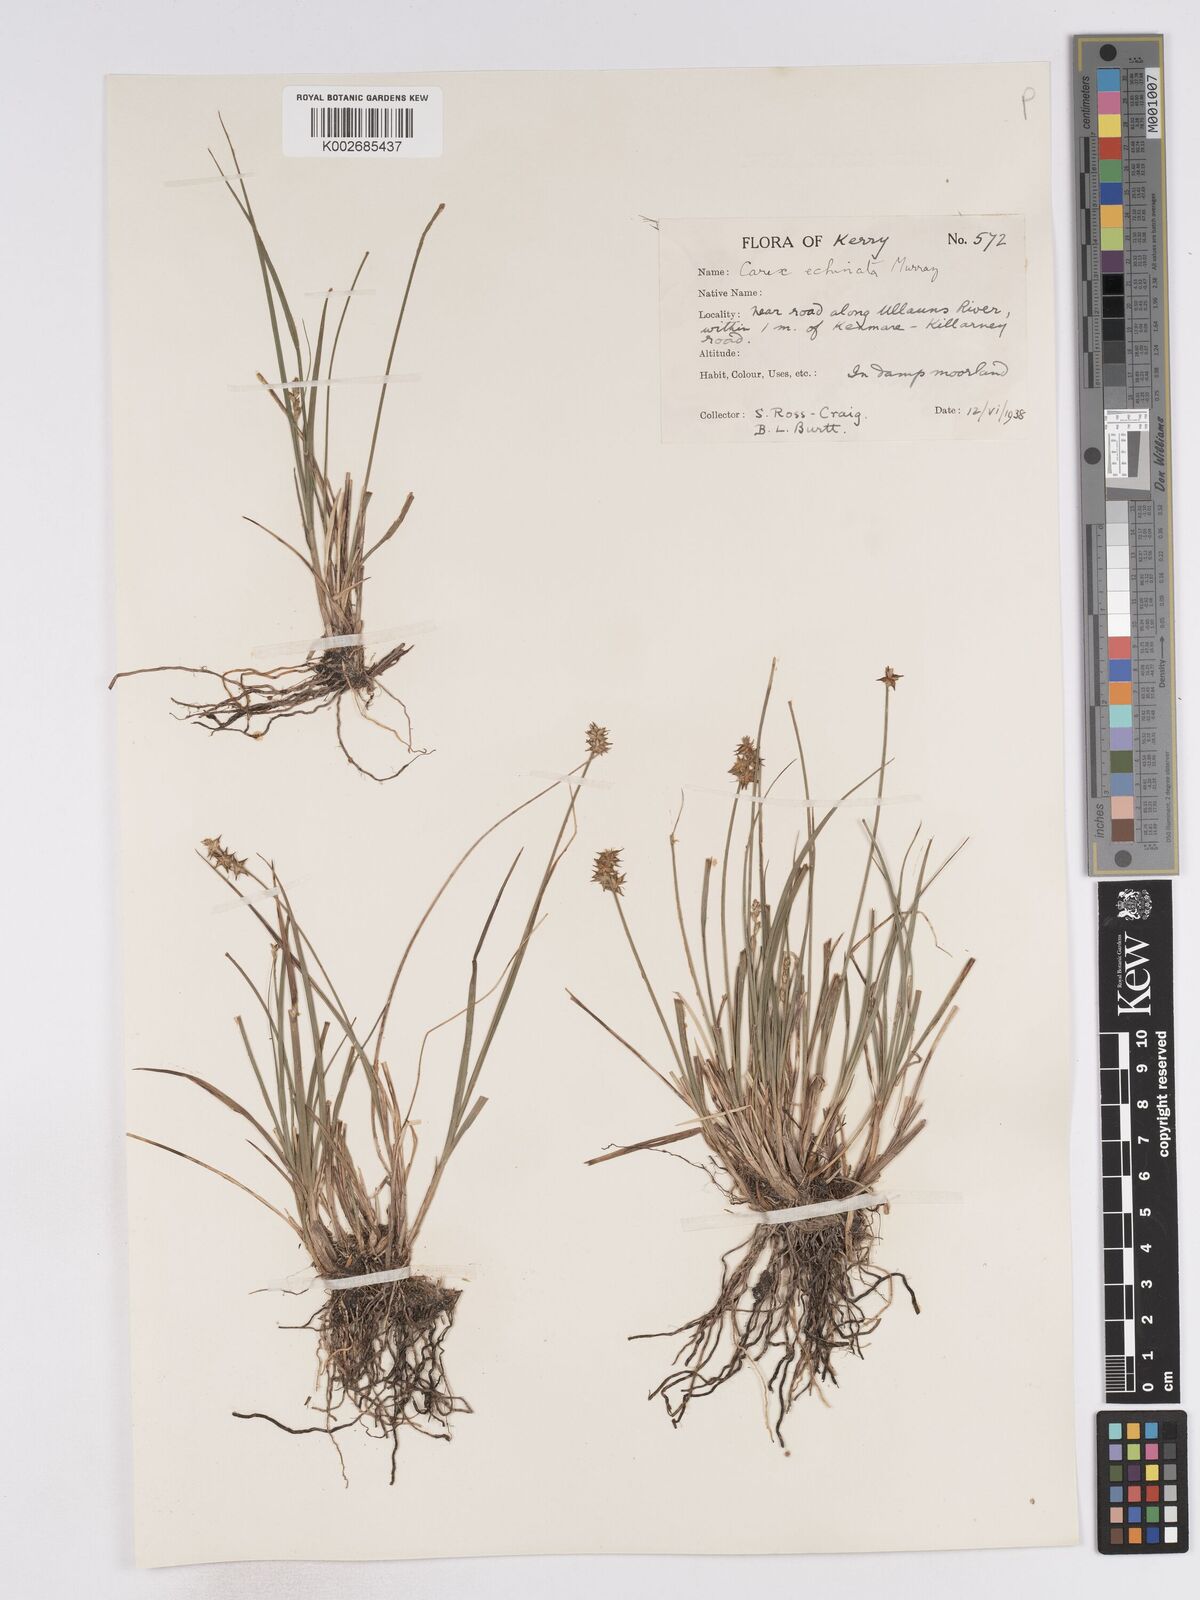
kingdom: Plantae
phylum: Tracheophyta
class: Liliopsida
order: Poales
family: Cyperaceae
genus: Carex
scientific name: Carex echinata
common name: Star sedge
